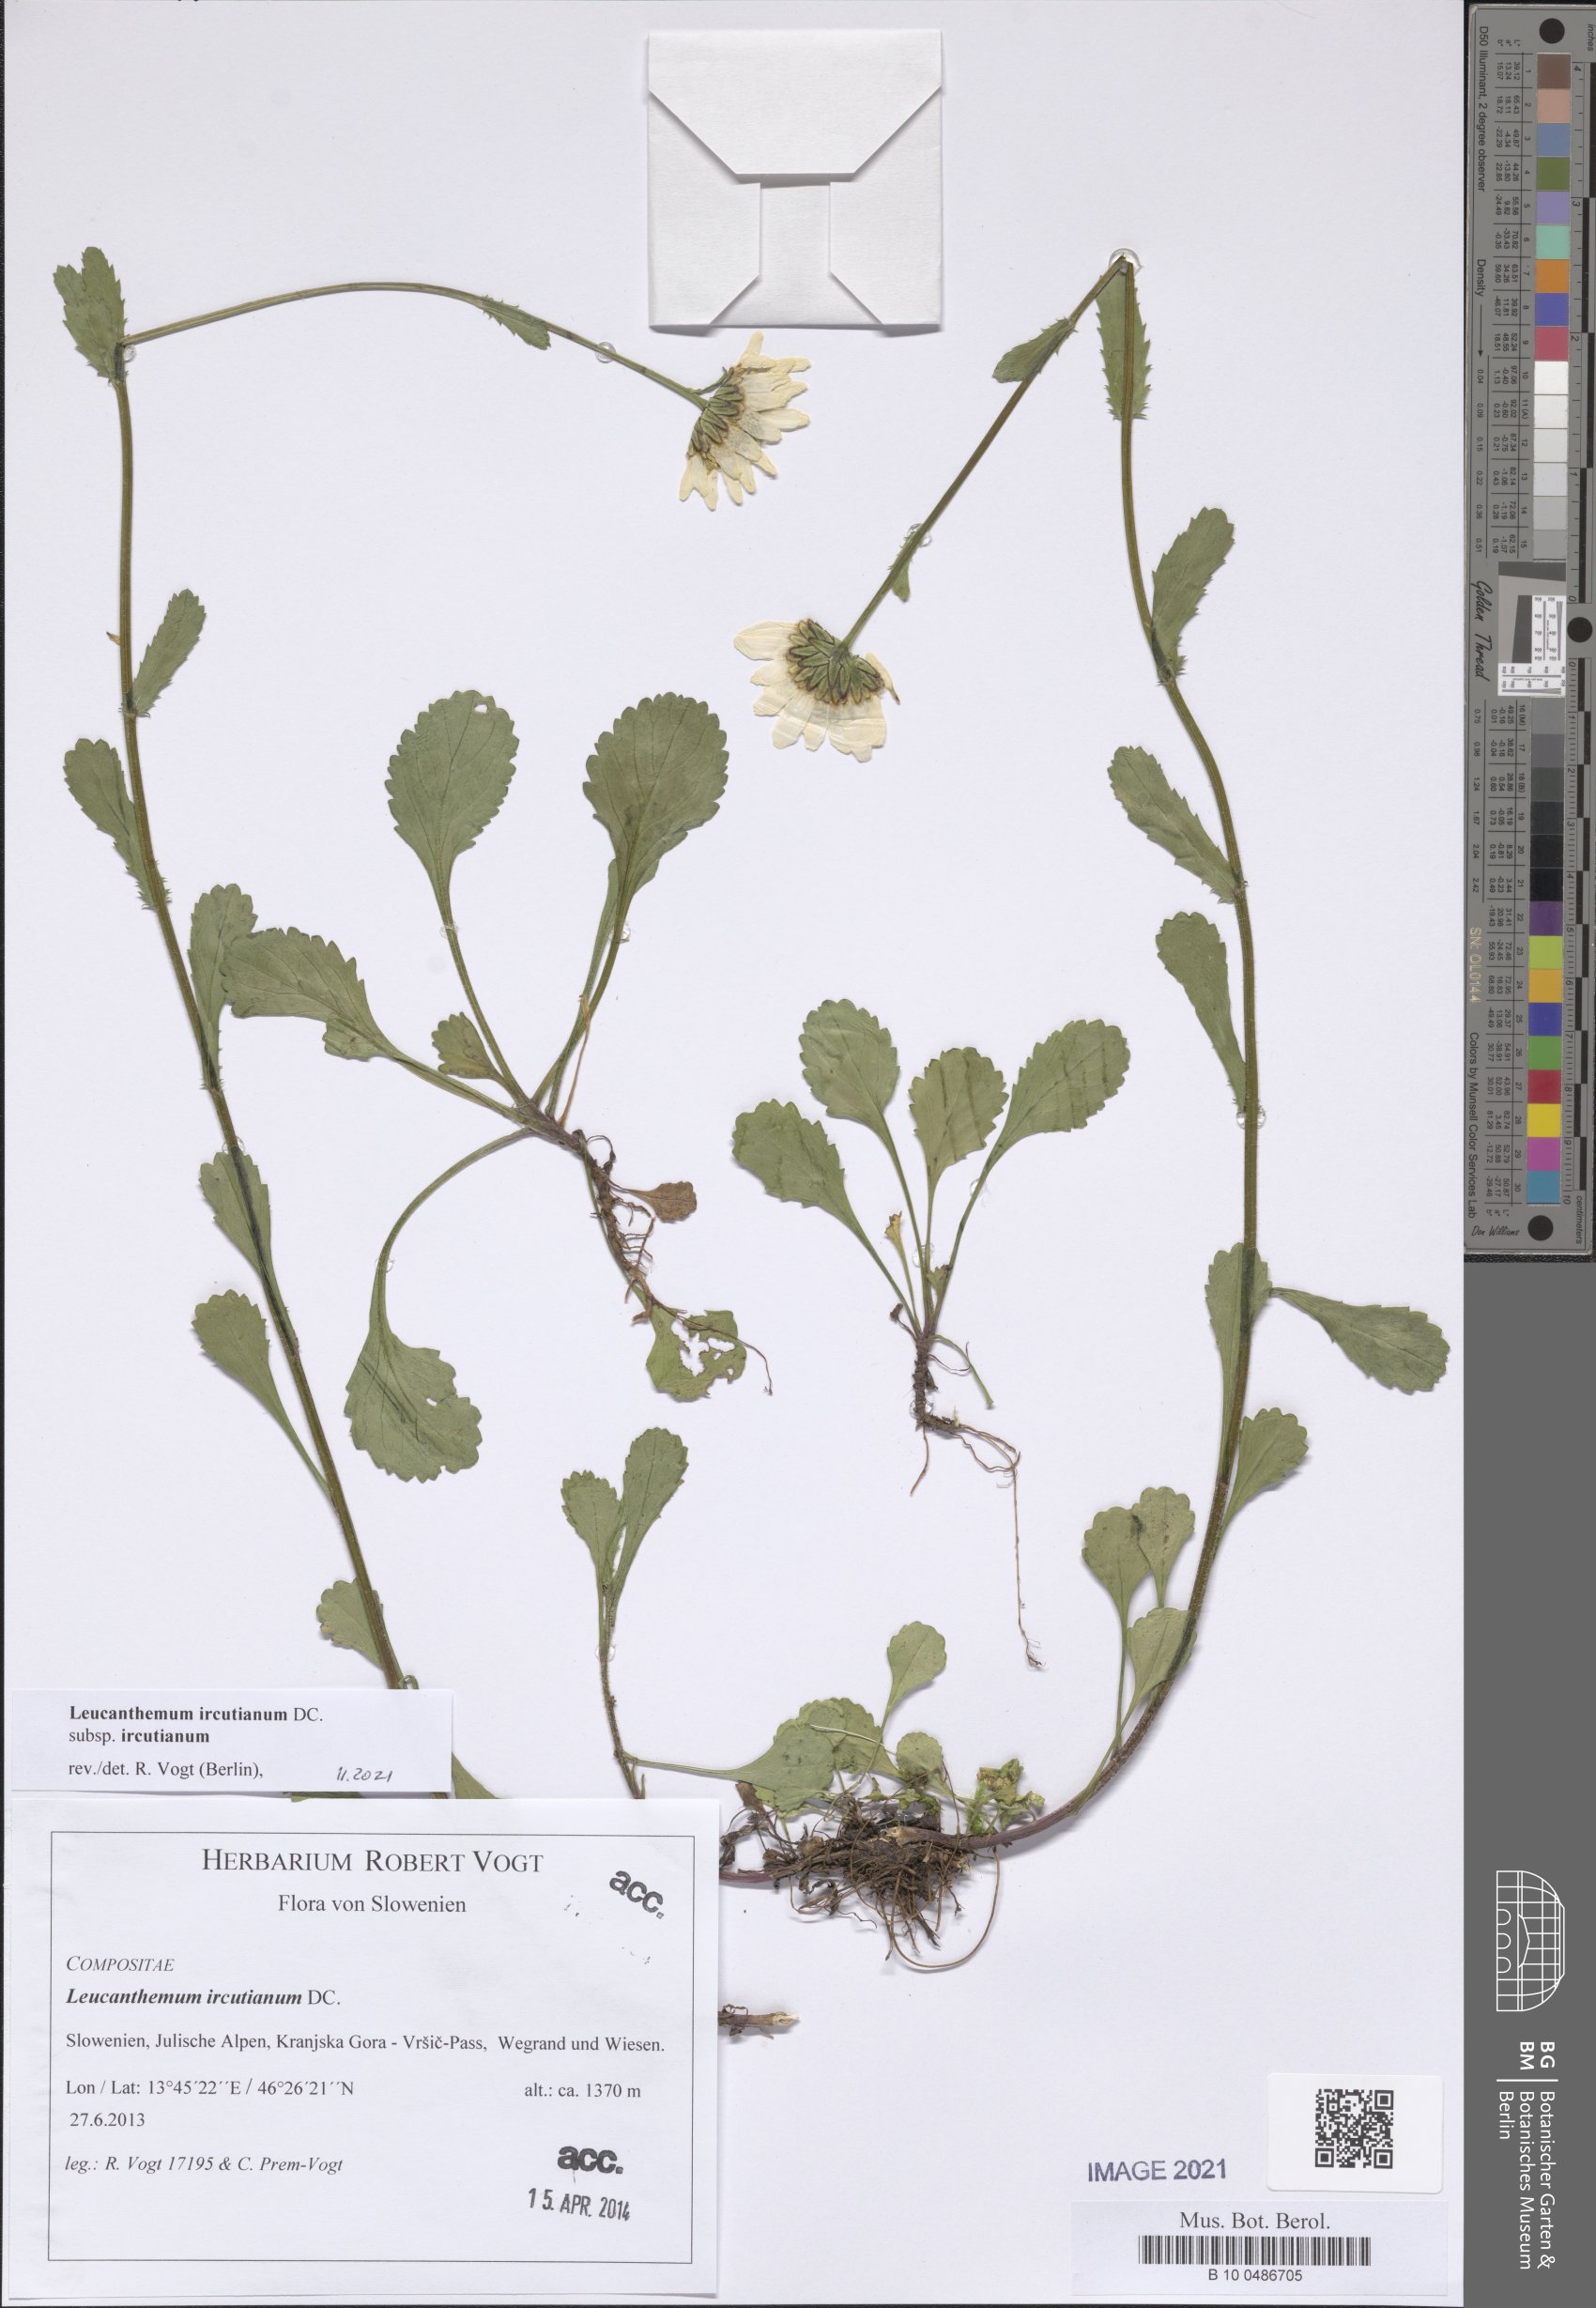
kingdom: Plantae
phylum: Tracheophyta
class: Magnoliopsida
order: Asterales
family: Asteraceae
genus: Leucanthemum
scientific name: Leucanthemum ircutianum
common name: Daisy
